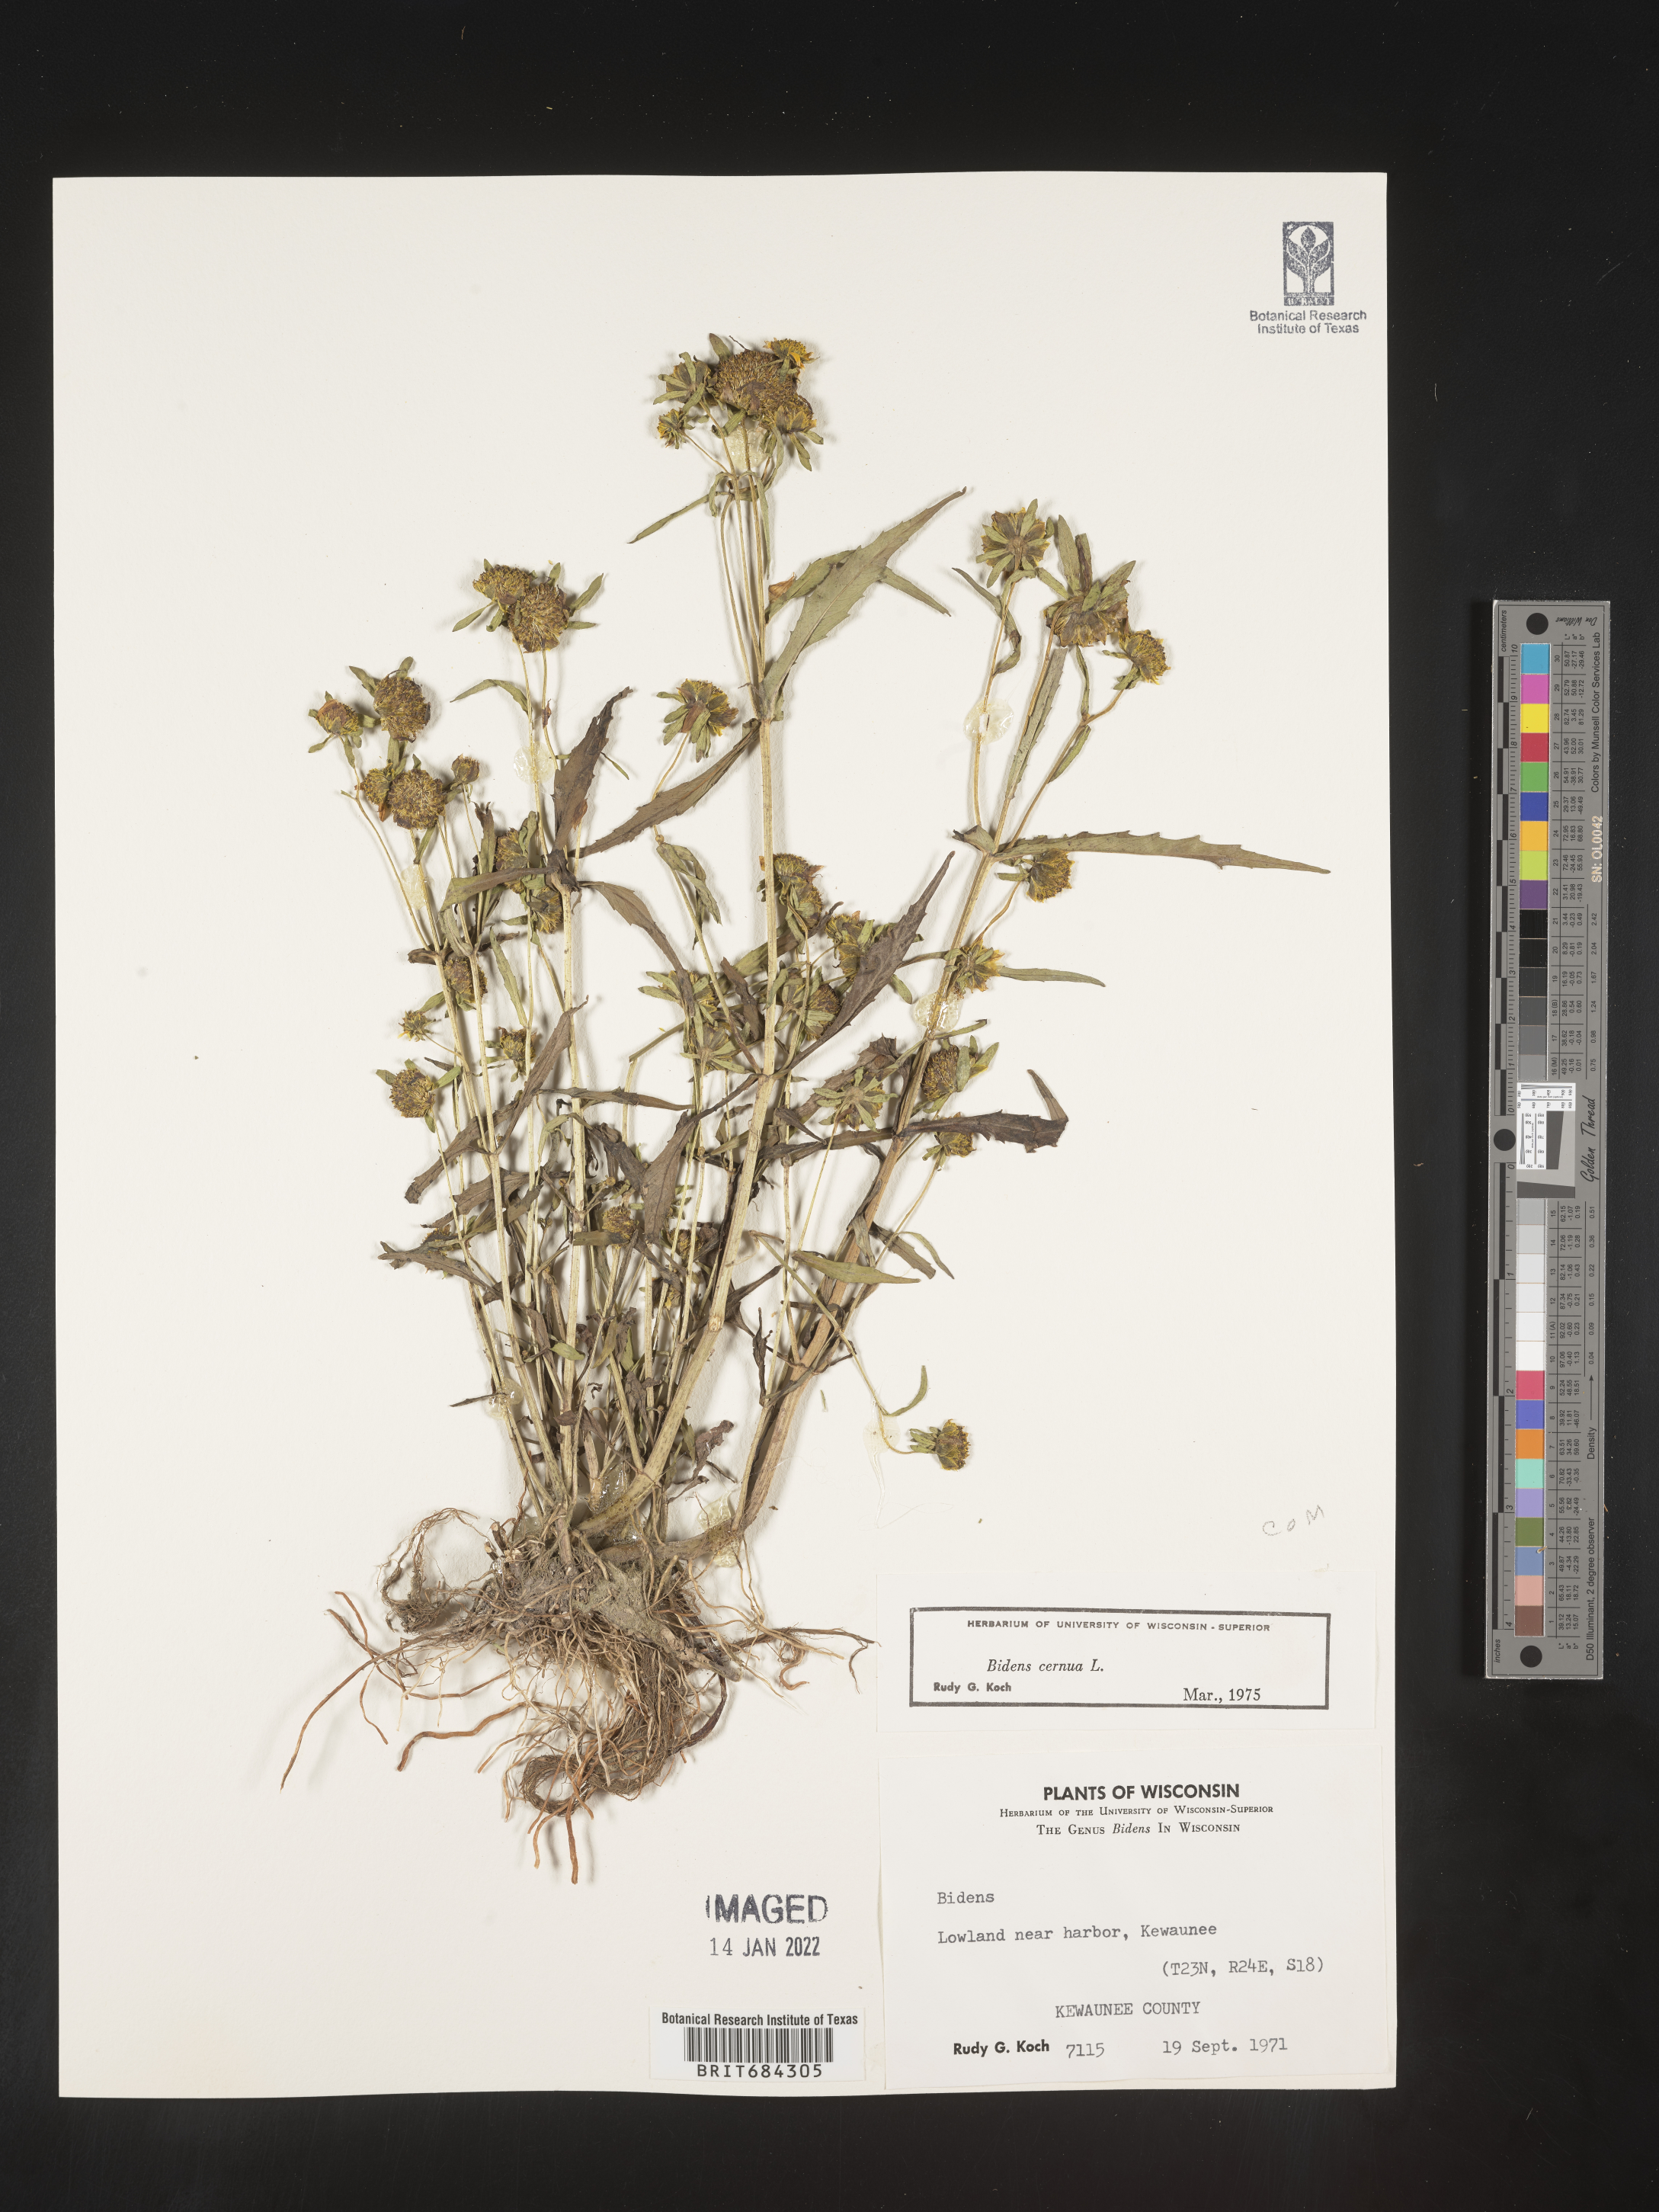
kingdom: Plantae
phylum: Tracheophyta
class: Magnoliopsida
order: Asterales
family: Asteraceae
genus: Bidens
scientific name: Bidens cernua
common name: Nodding bur-marigold
